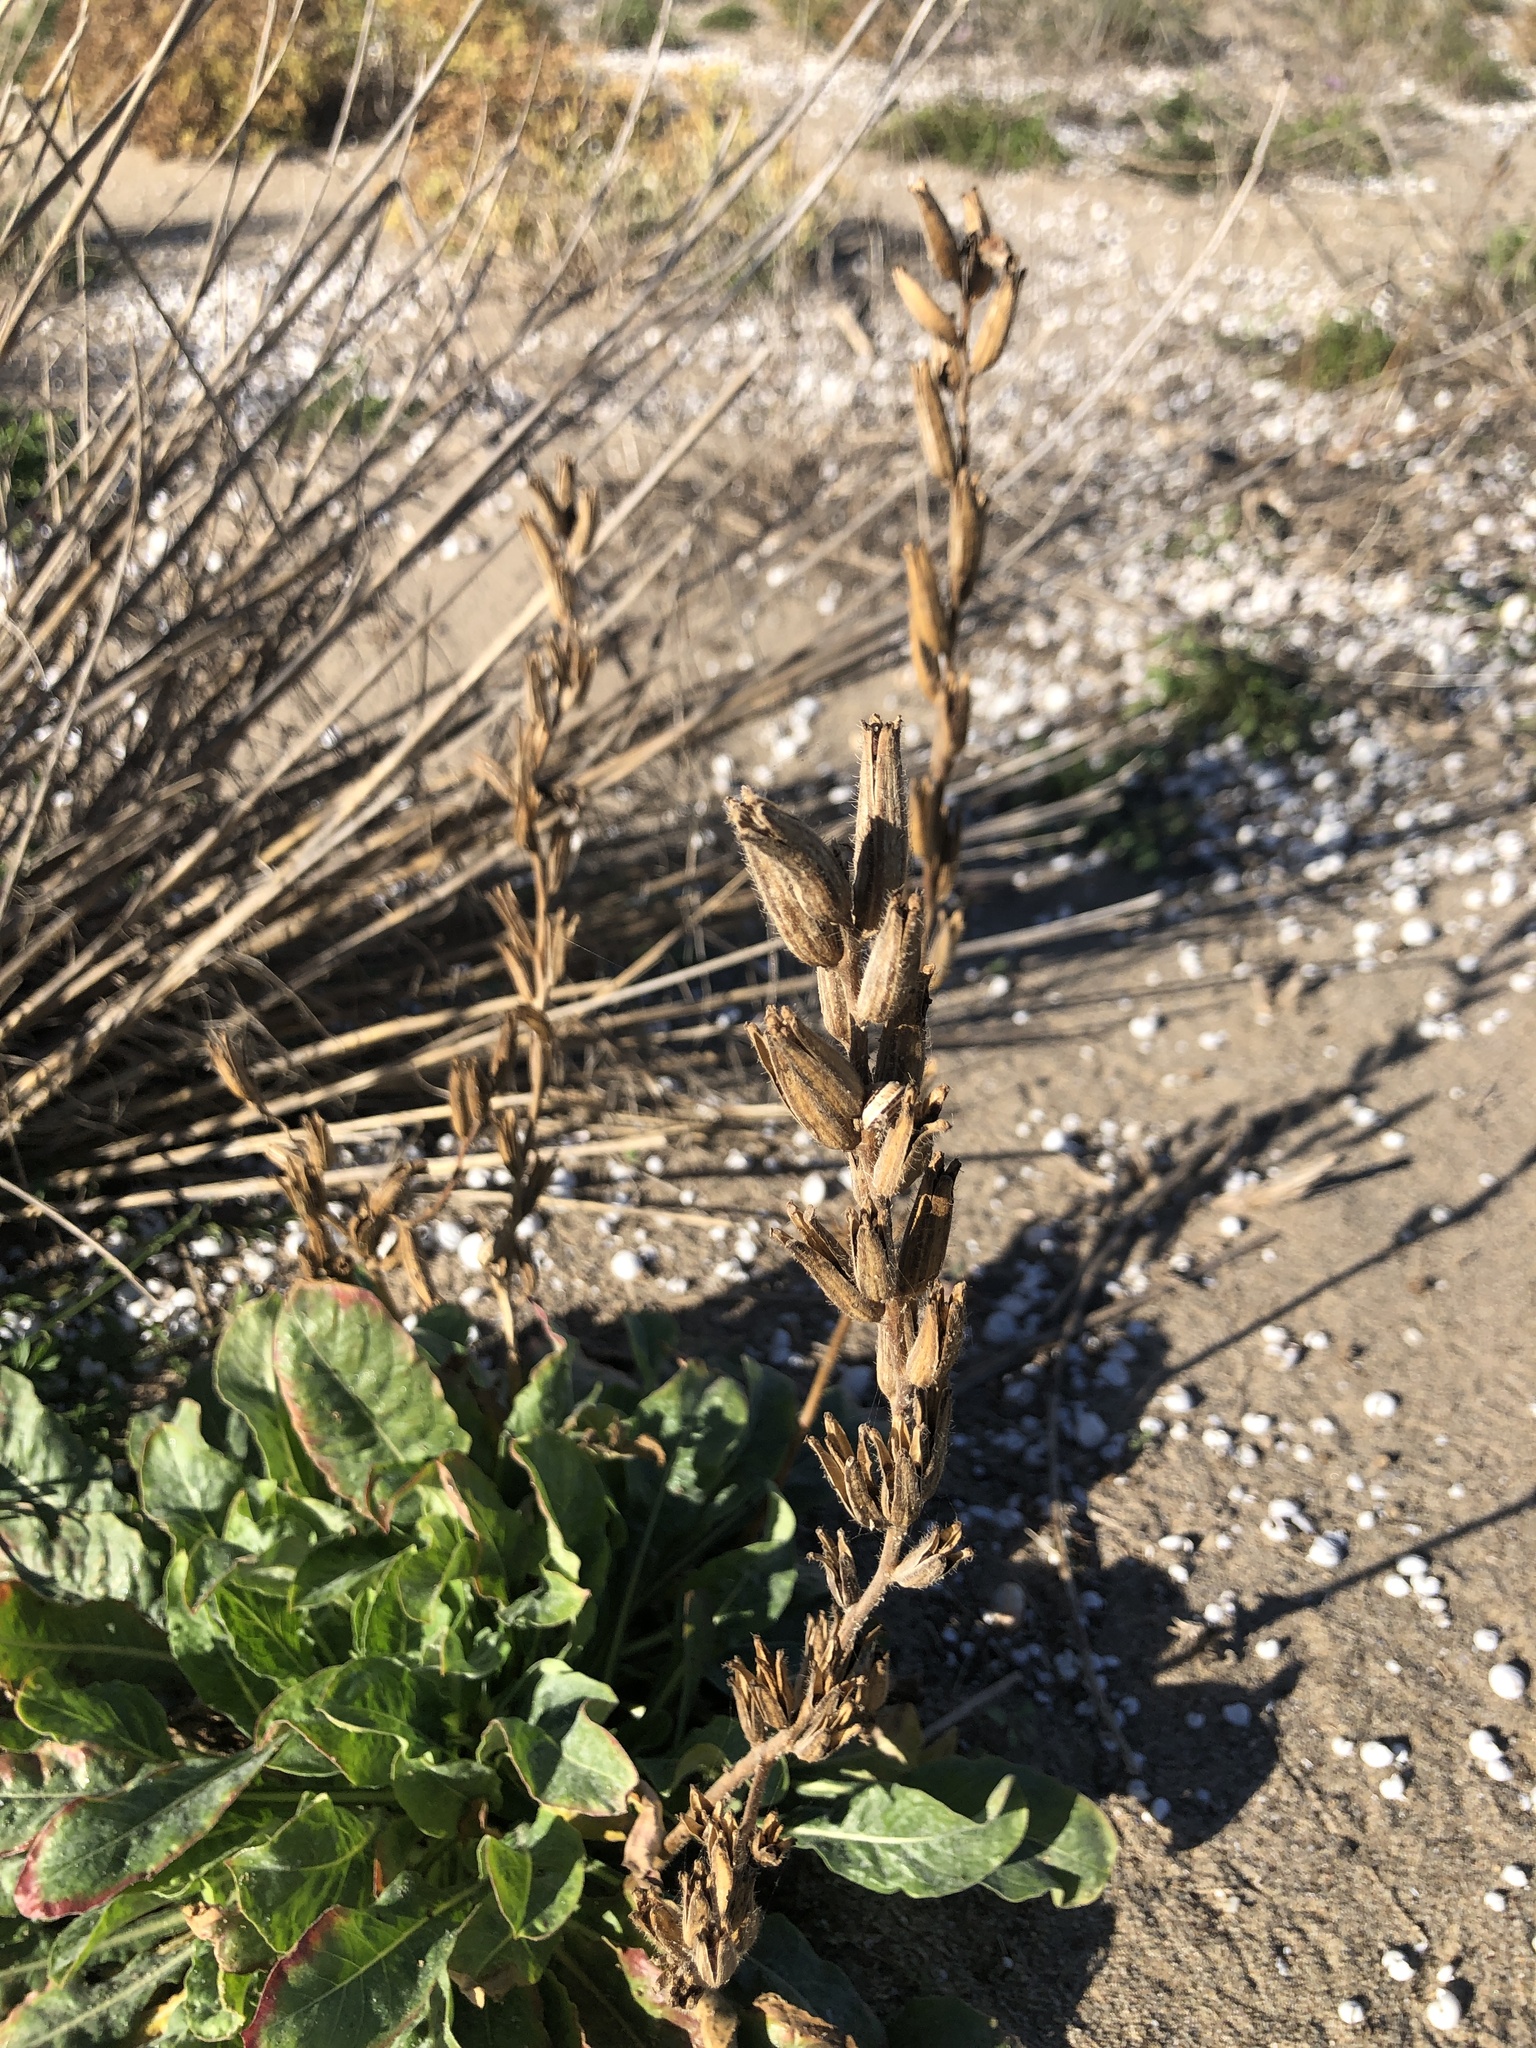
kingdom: Plantae
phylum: Tracheophyta
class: Magnoliopsida
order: Myrtales
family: Onagraceae
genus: Oenothera
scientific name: Oenothera glazioviana
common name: Large-flowered evening-primrose
